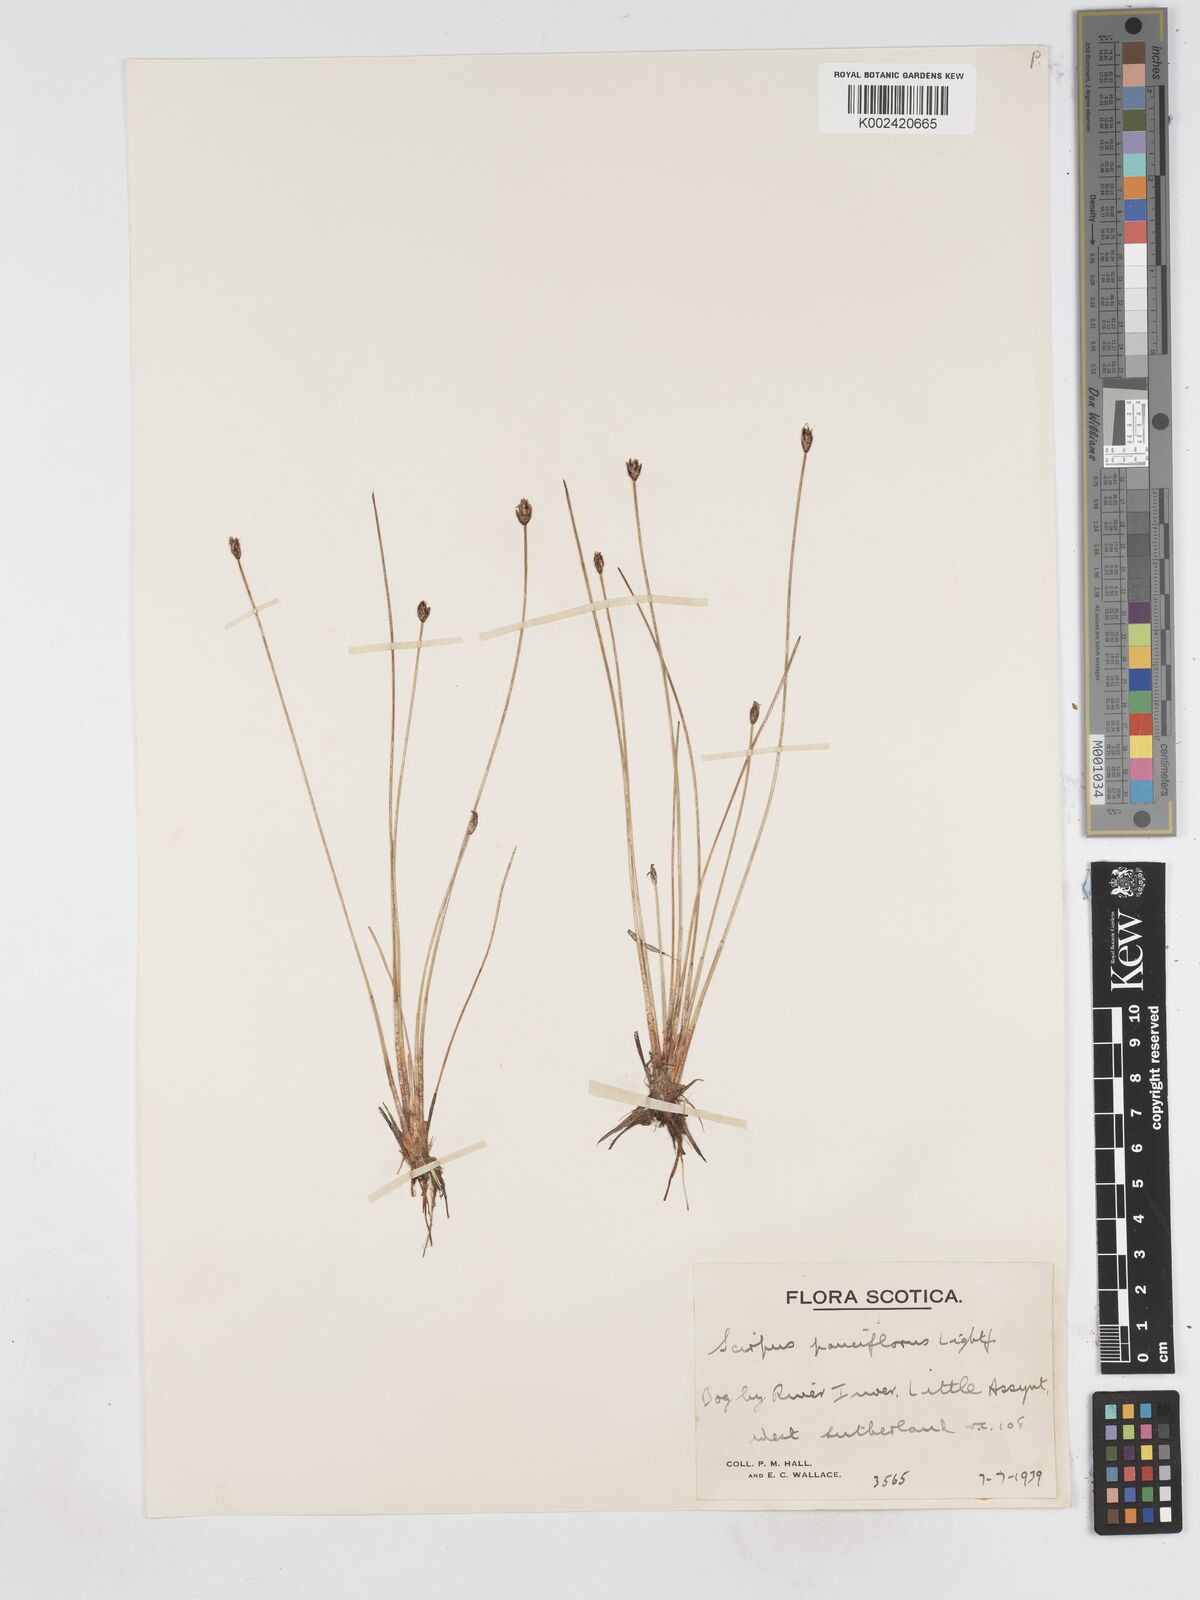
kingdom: Plantae
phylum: Tracheophyta
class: Liliopsida
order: Poales
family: Cyperaceae
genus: Eleocharis
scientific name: Eleocharis quinqueflora
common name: Few-flowered spike-rush
